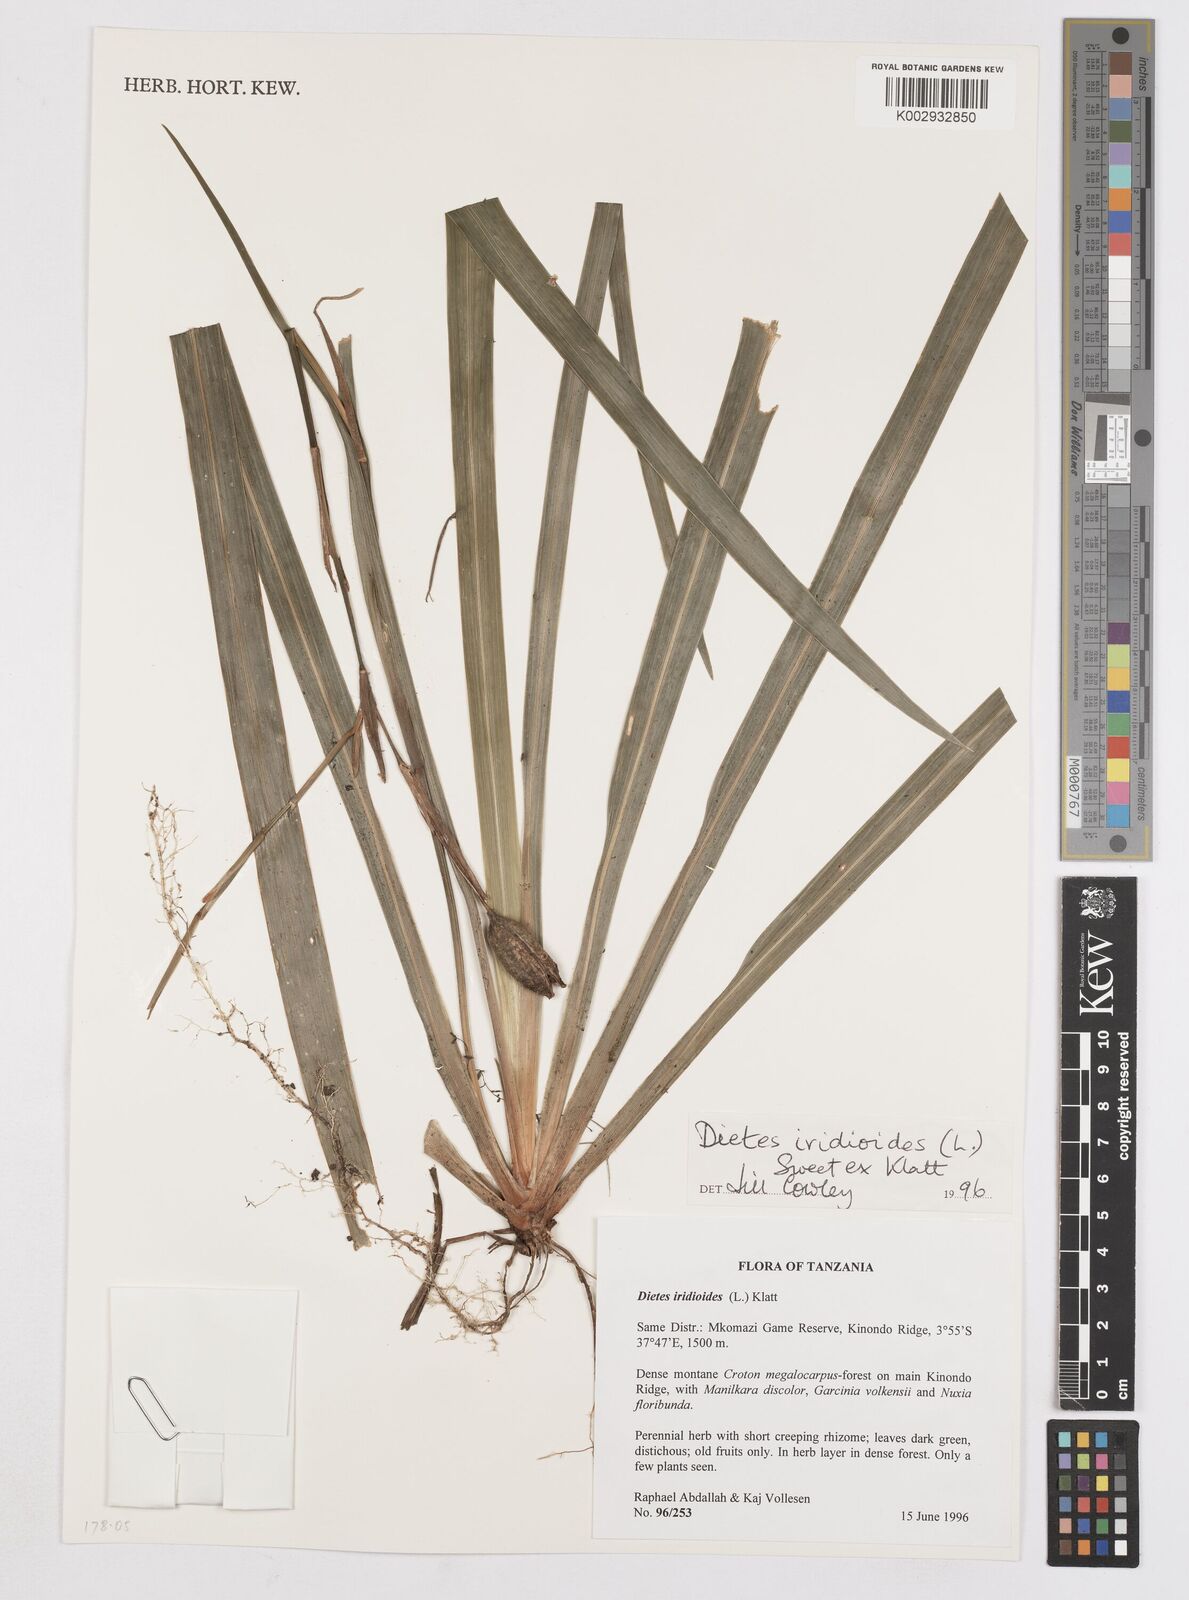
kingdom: Plantae
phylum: Tracheophyta
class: Liliopsida
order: Asparagales
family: Iridaceae
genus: Dietes
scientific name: Dietes iridioides
